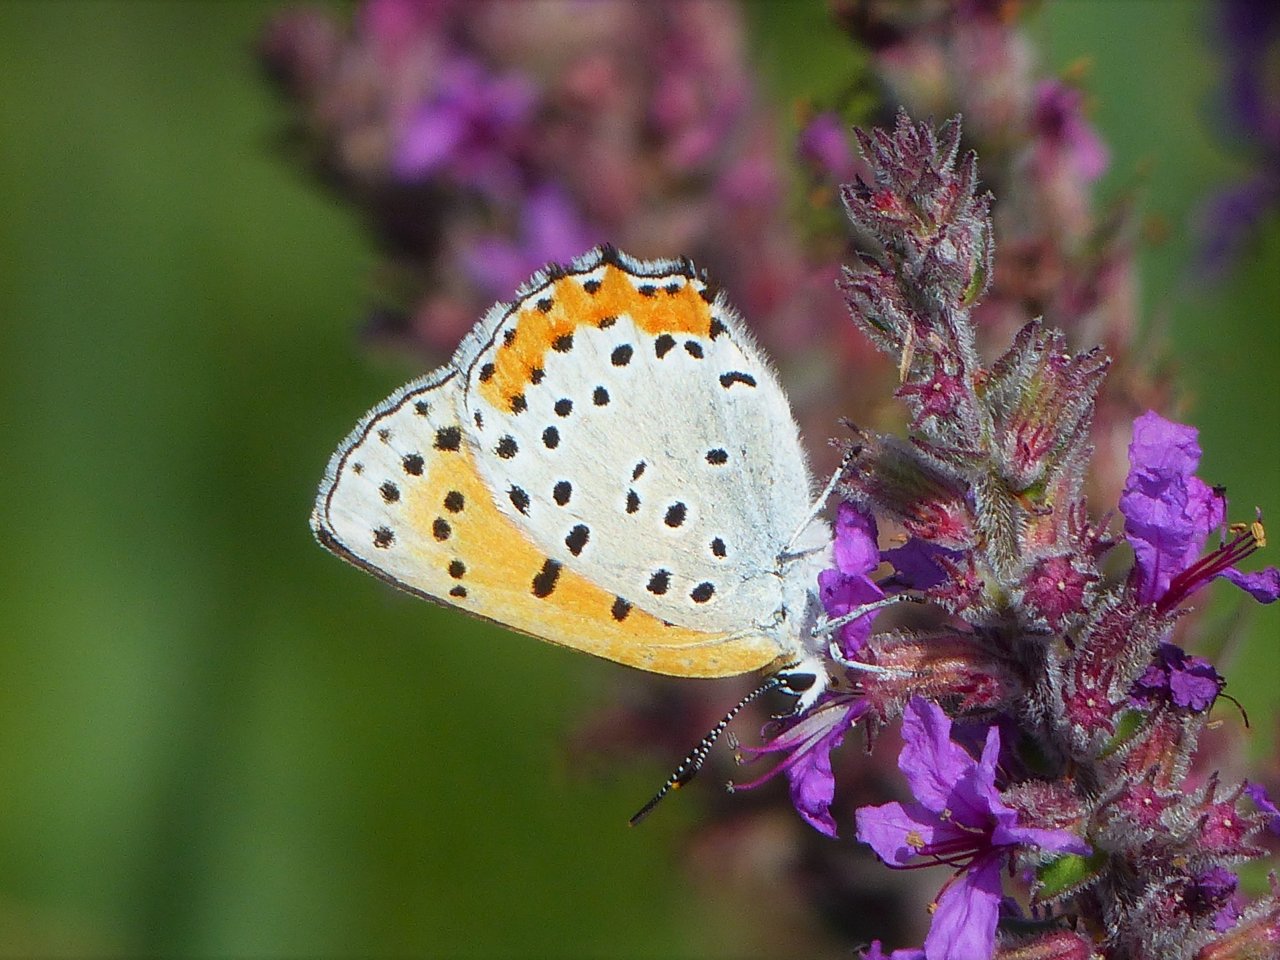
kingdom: Animalia
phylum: Arthropoda
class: Insecta
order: Lepidoptera
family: Sesiidae
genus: Sesia
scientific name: Sesia Lycaena hyllus
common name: Bronze Copper
